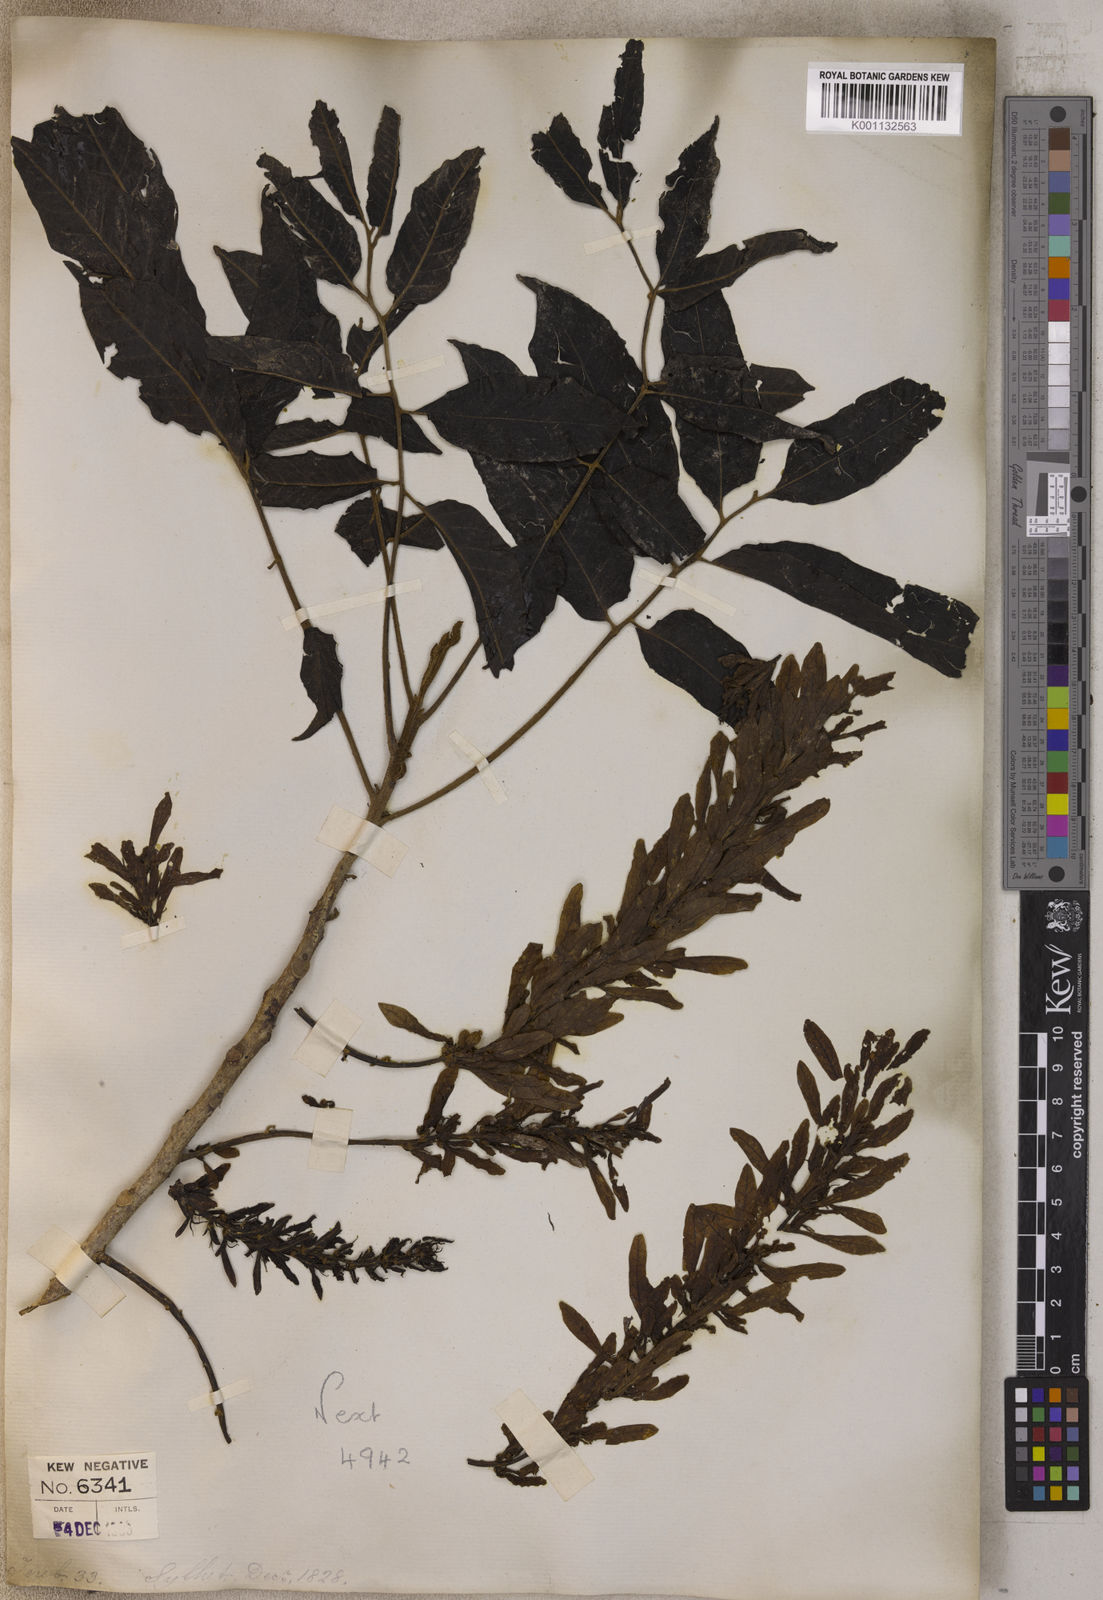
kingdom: Plantae
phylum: Tracheophyta
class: Magnoliopsida
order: Fagales
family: Juglandaceae
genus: Engelhardia
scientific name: Engelhardia
